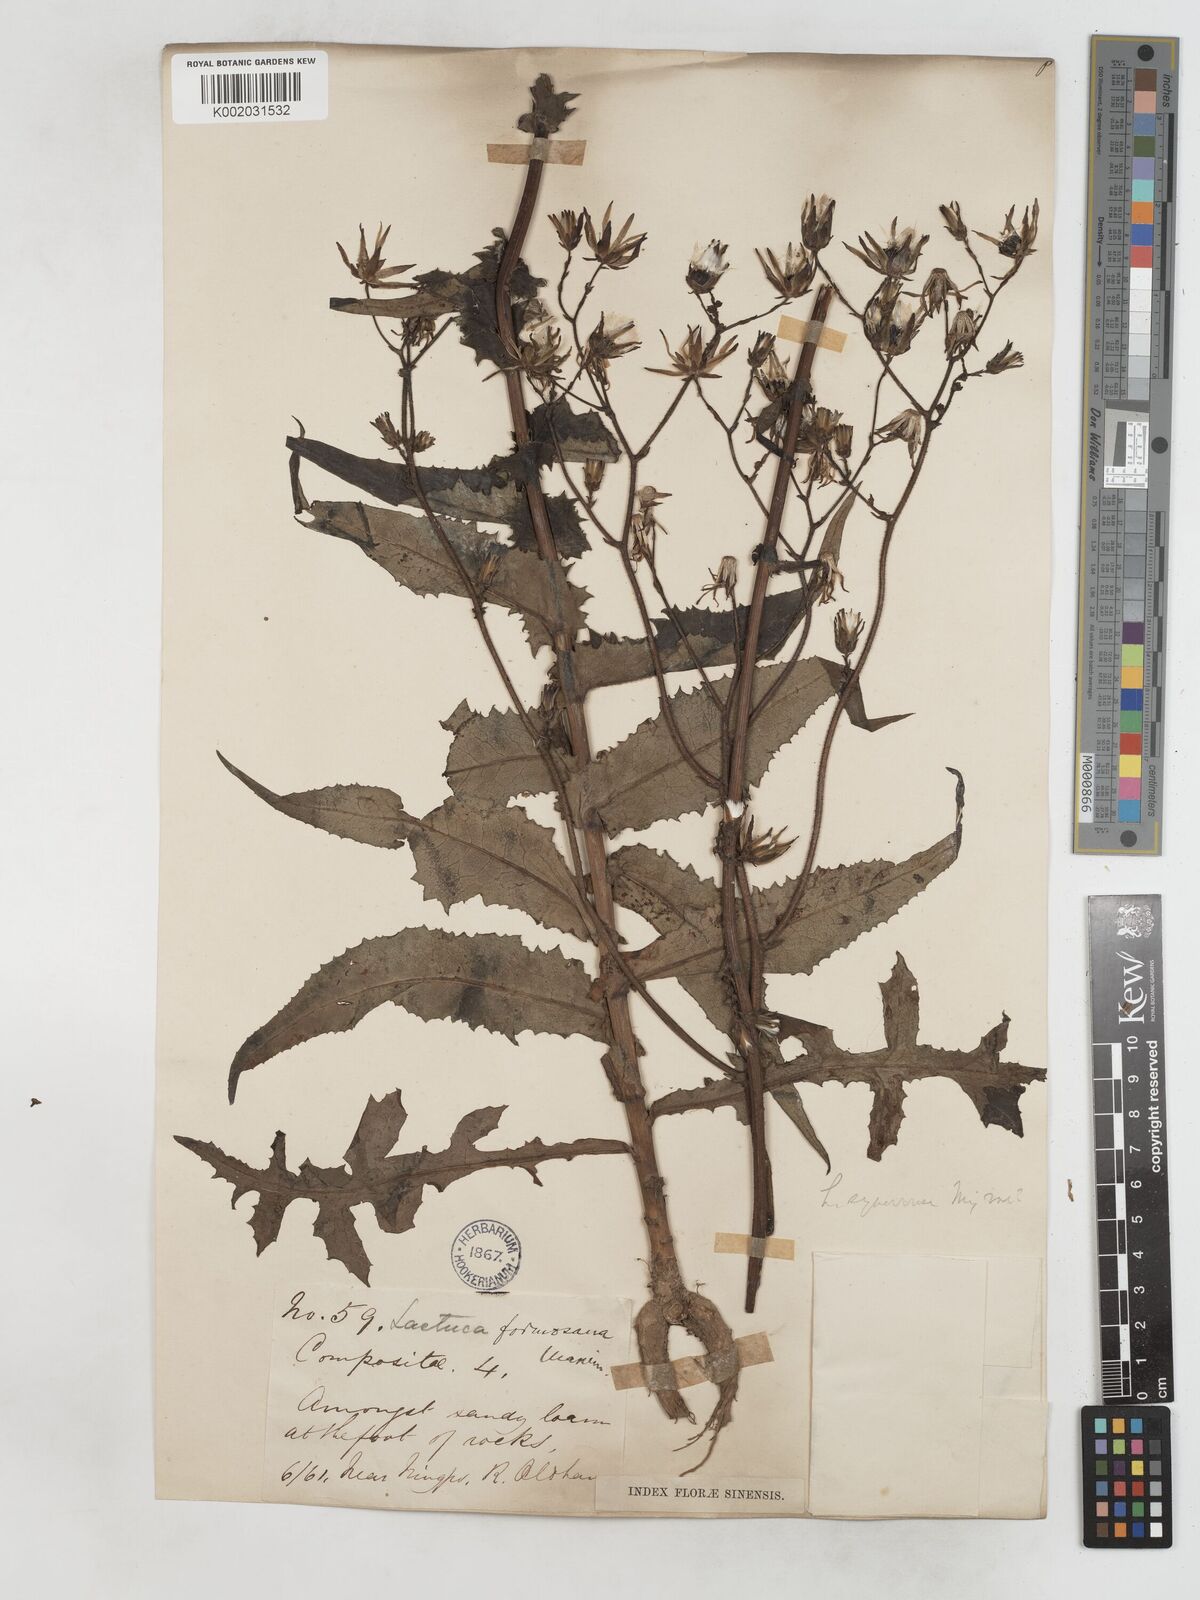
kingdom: Plantae
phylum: Tracheophyta
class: Magnoliopsida
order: Asterales
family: Asteraceae
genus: Lactuca
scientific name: Lactuca formosana
